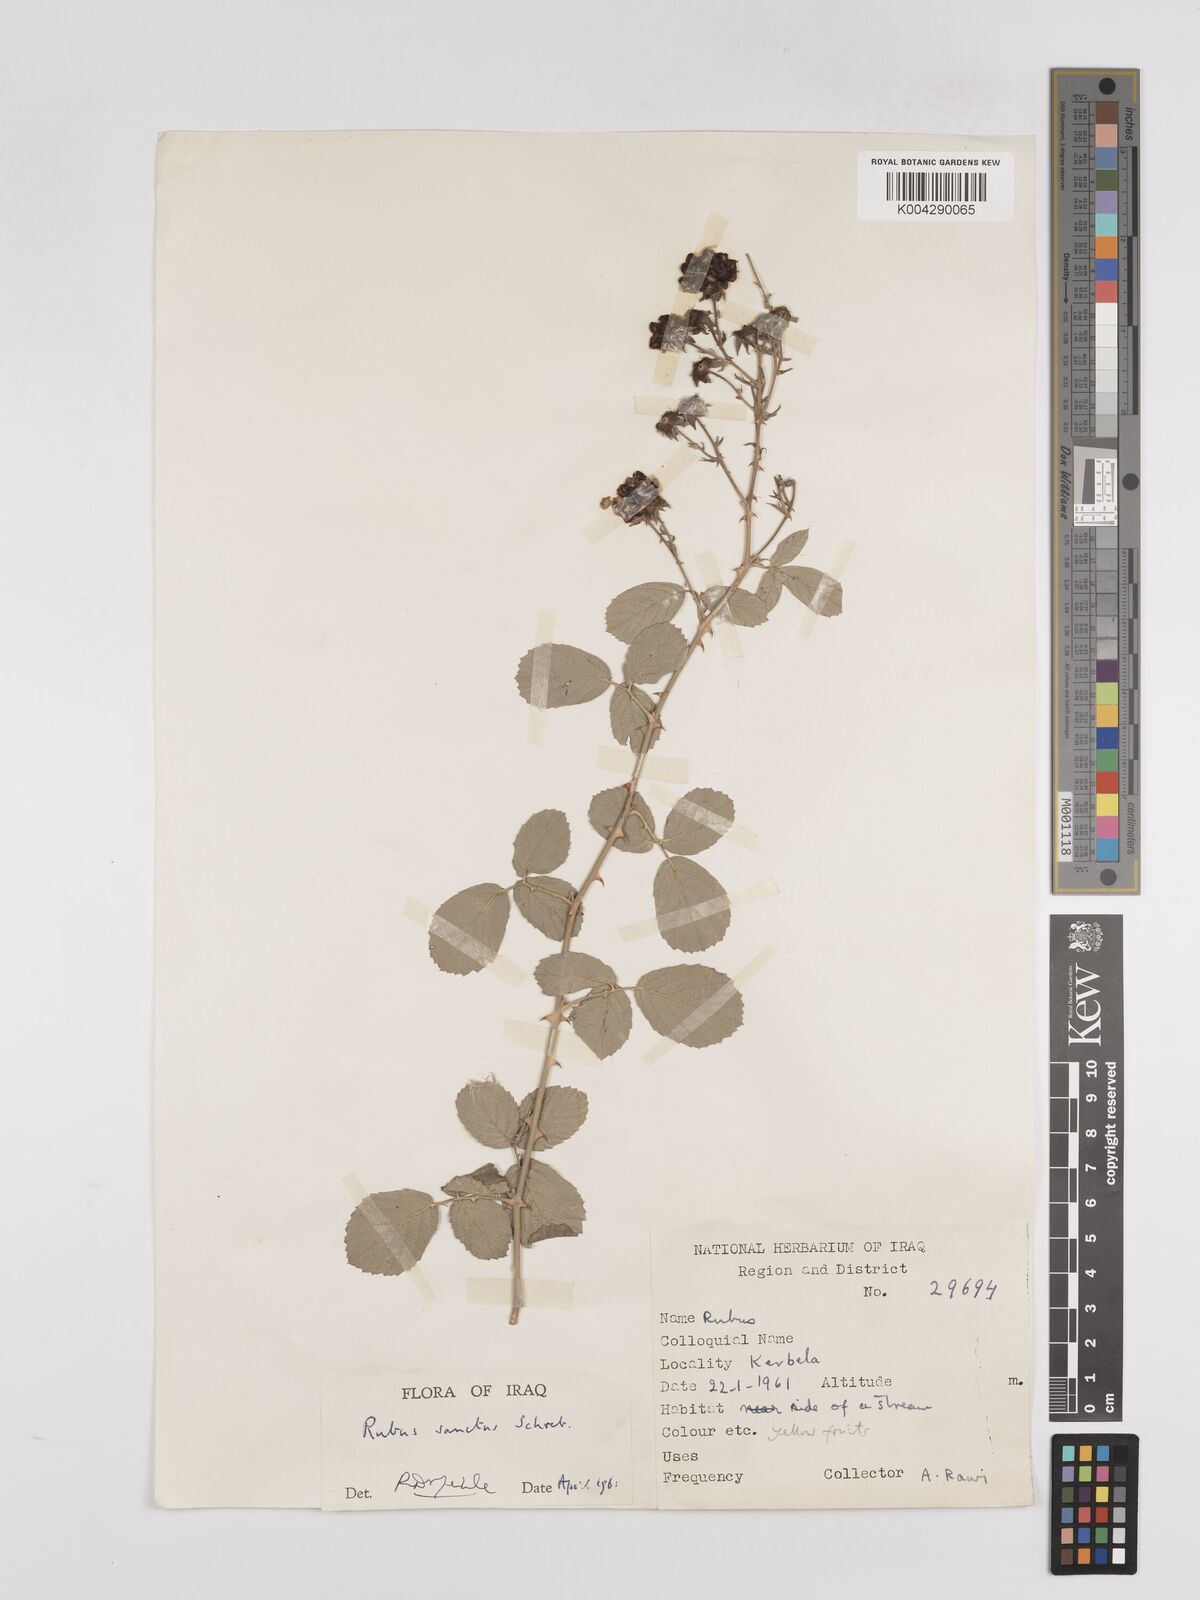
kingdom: Plantae
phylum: Tracheophyta
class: Magnoliopsida
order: Rosales
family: Rosaceae
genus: Rubus
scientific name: Rubus sanctus
